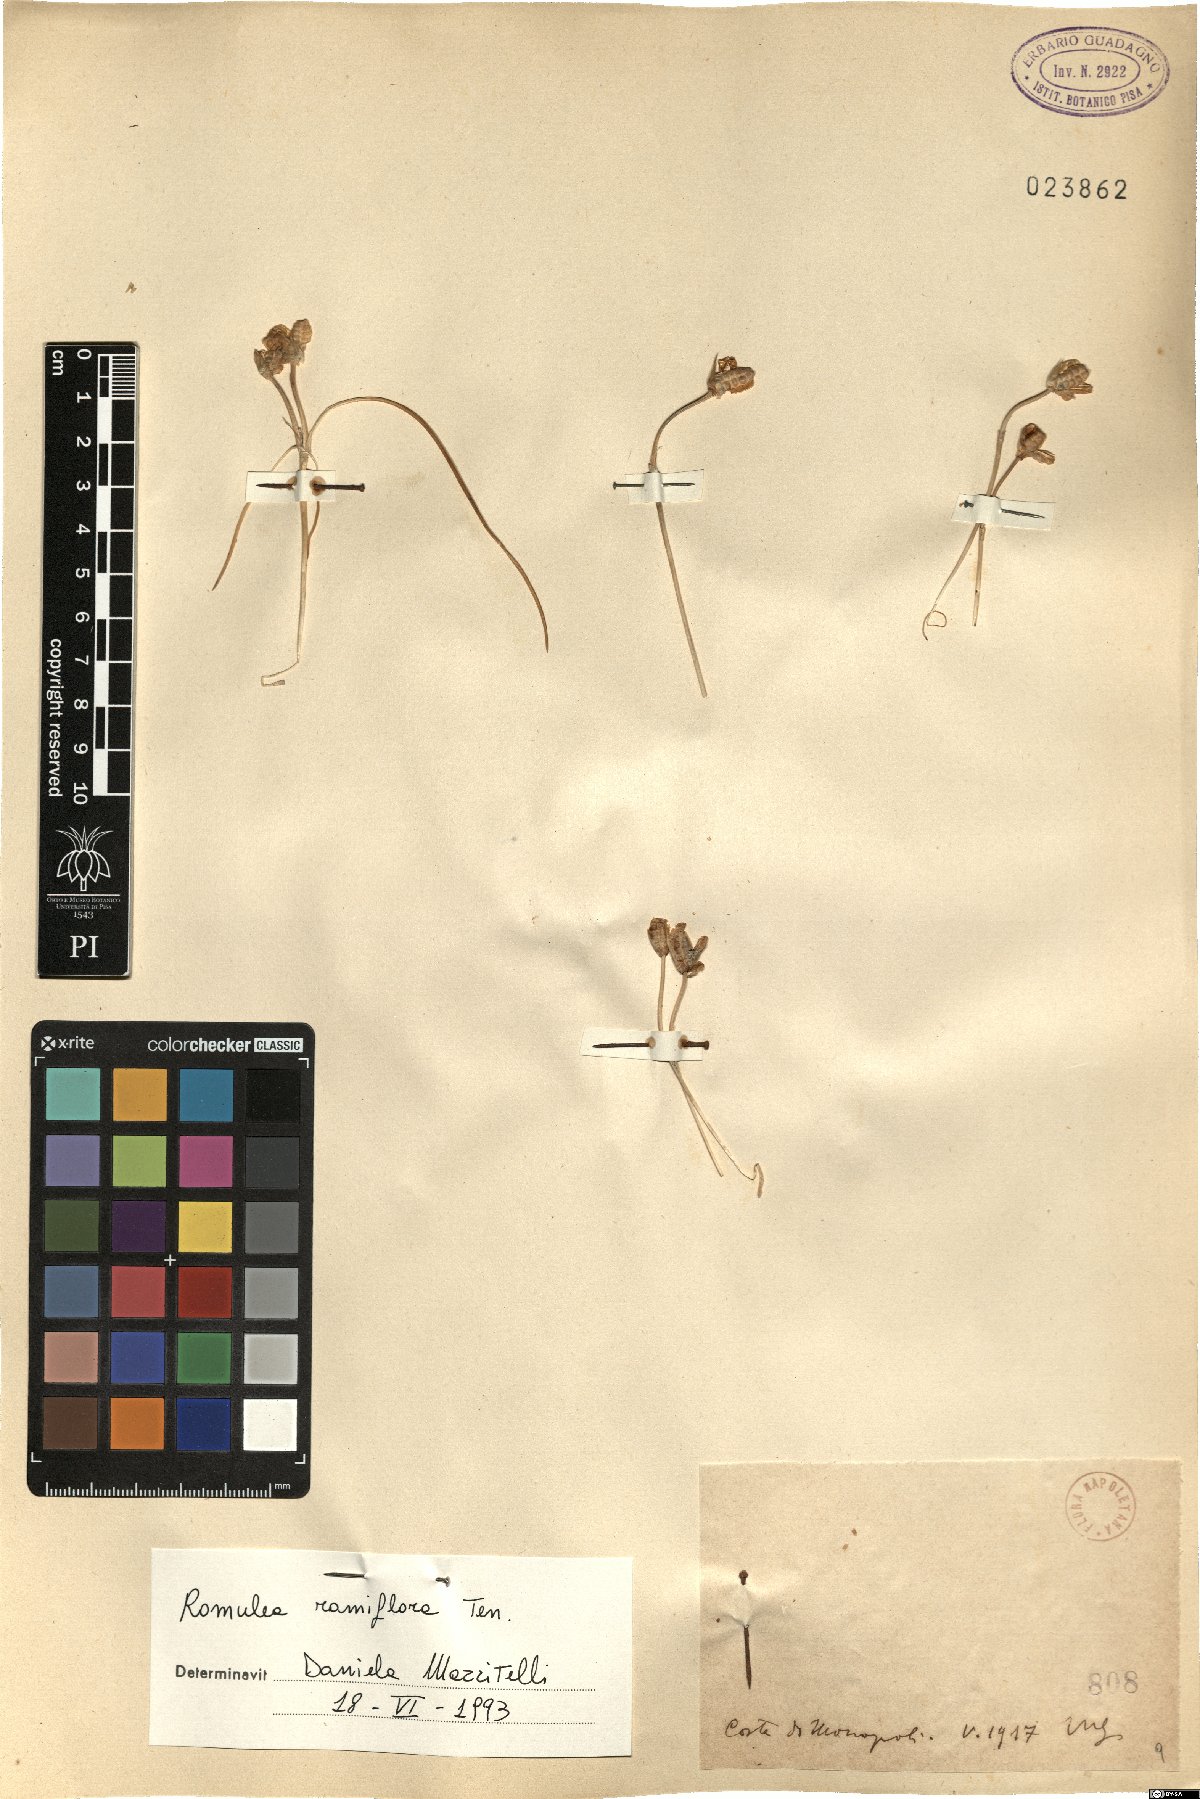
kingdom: Plantae
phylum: Tracheophyta
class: Liliopsida
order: Asparagales
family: Iridaceae
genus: Romulea
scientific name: Romulea ramiflora
